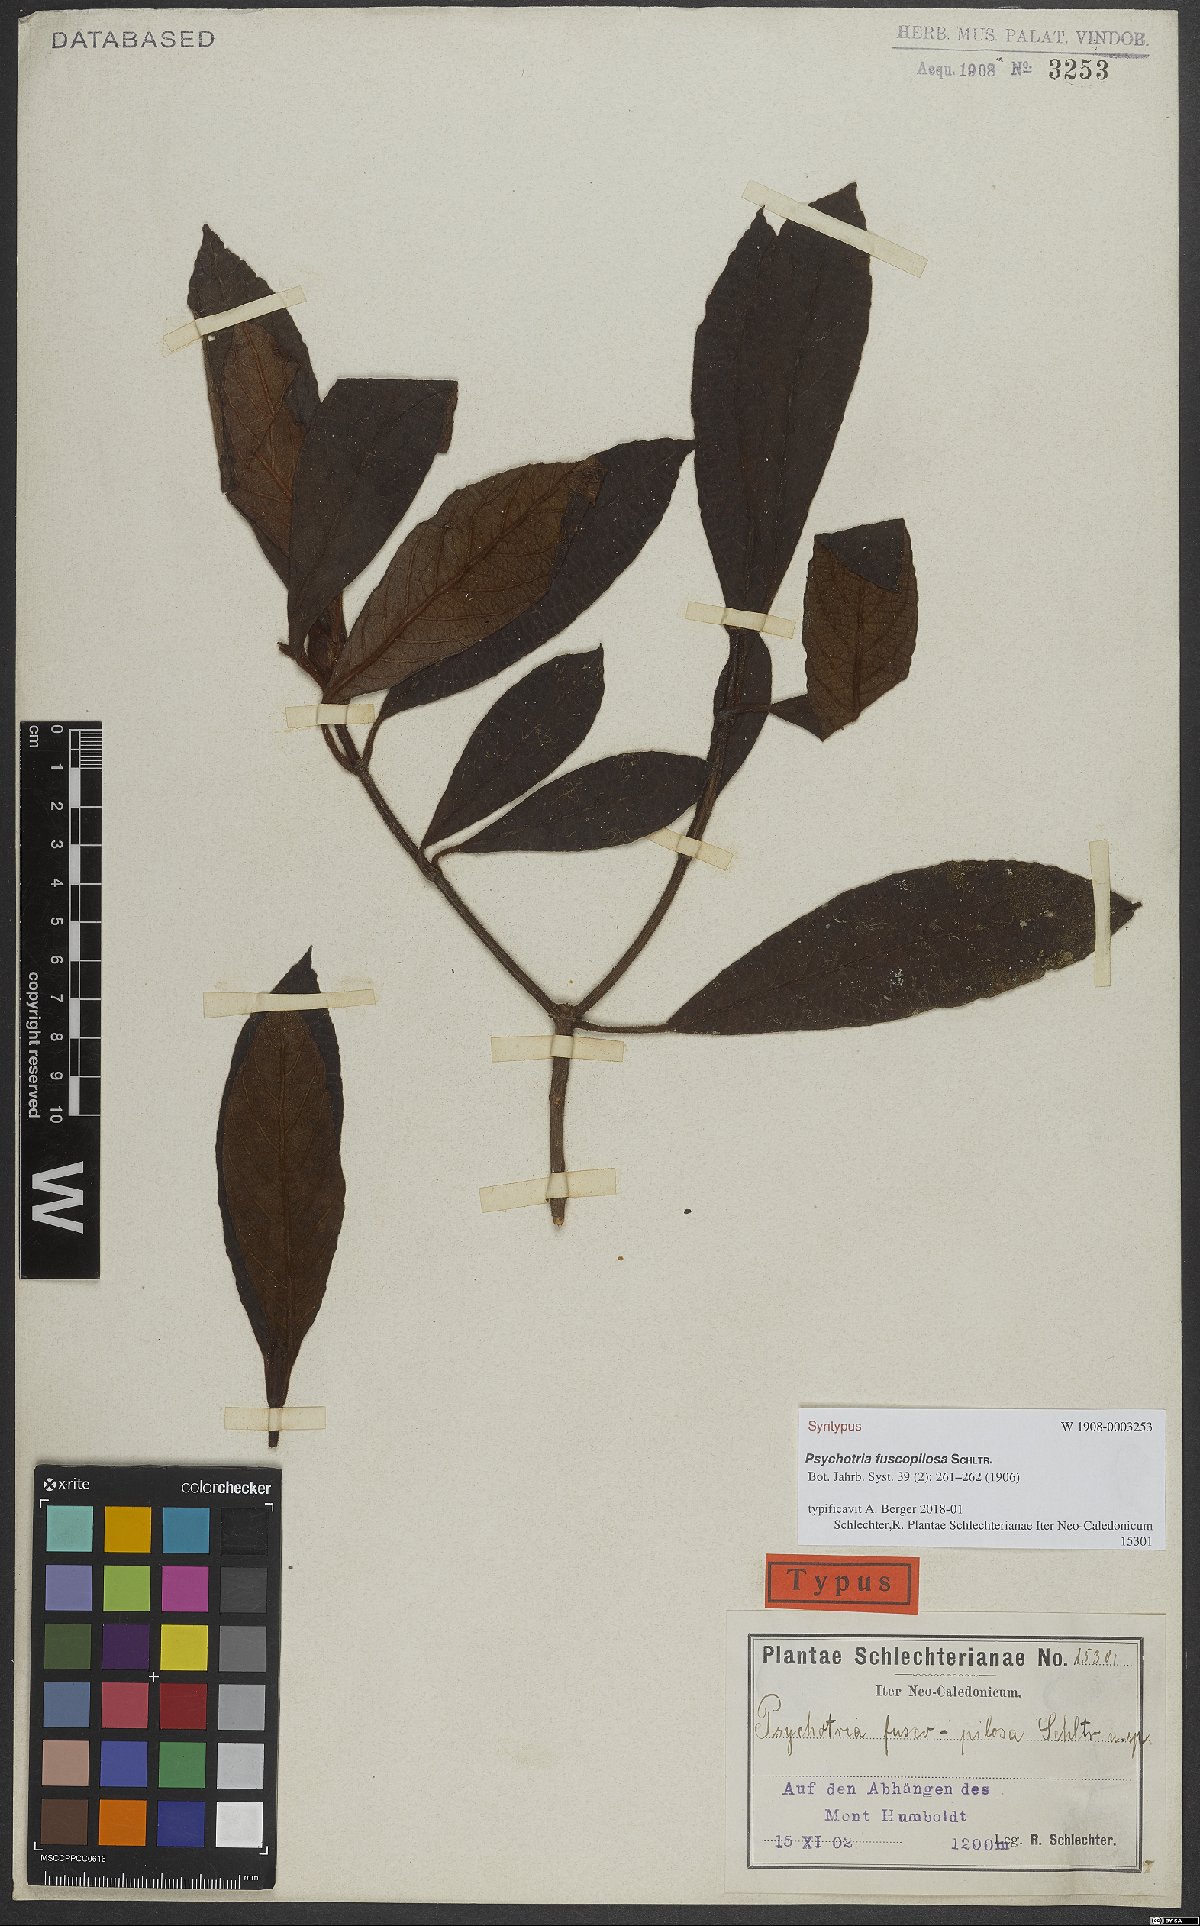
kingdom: Plantae
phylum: Tracheophyta
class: Magnoliopsida
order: Gentianales
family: Rubiaceae
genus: Psychotria
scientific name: Psychotria fuscopilosa
